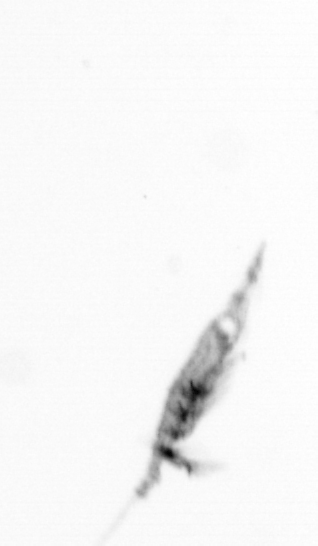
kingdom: Animalia
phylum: Arthropoda
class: Copepoda
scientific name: Copepoda
